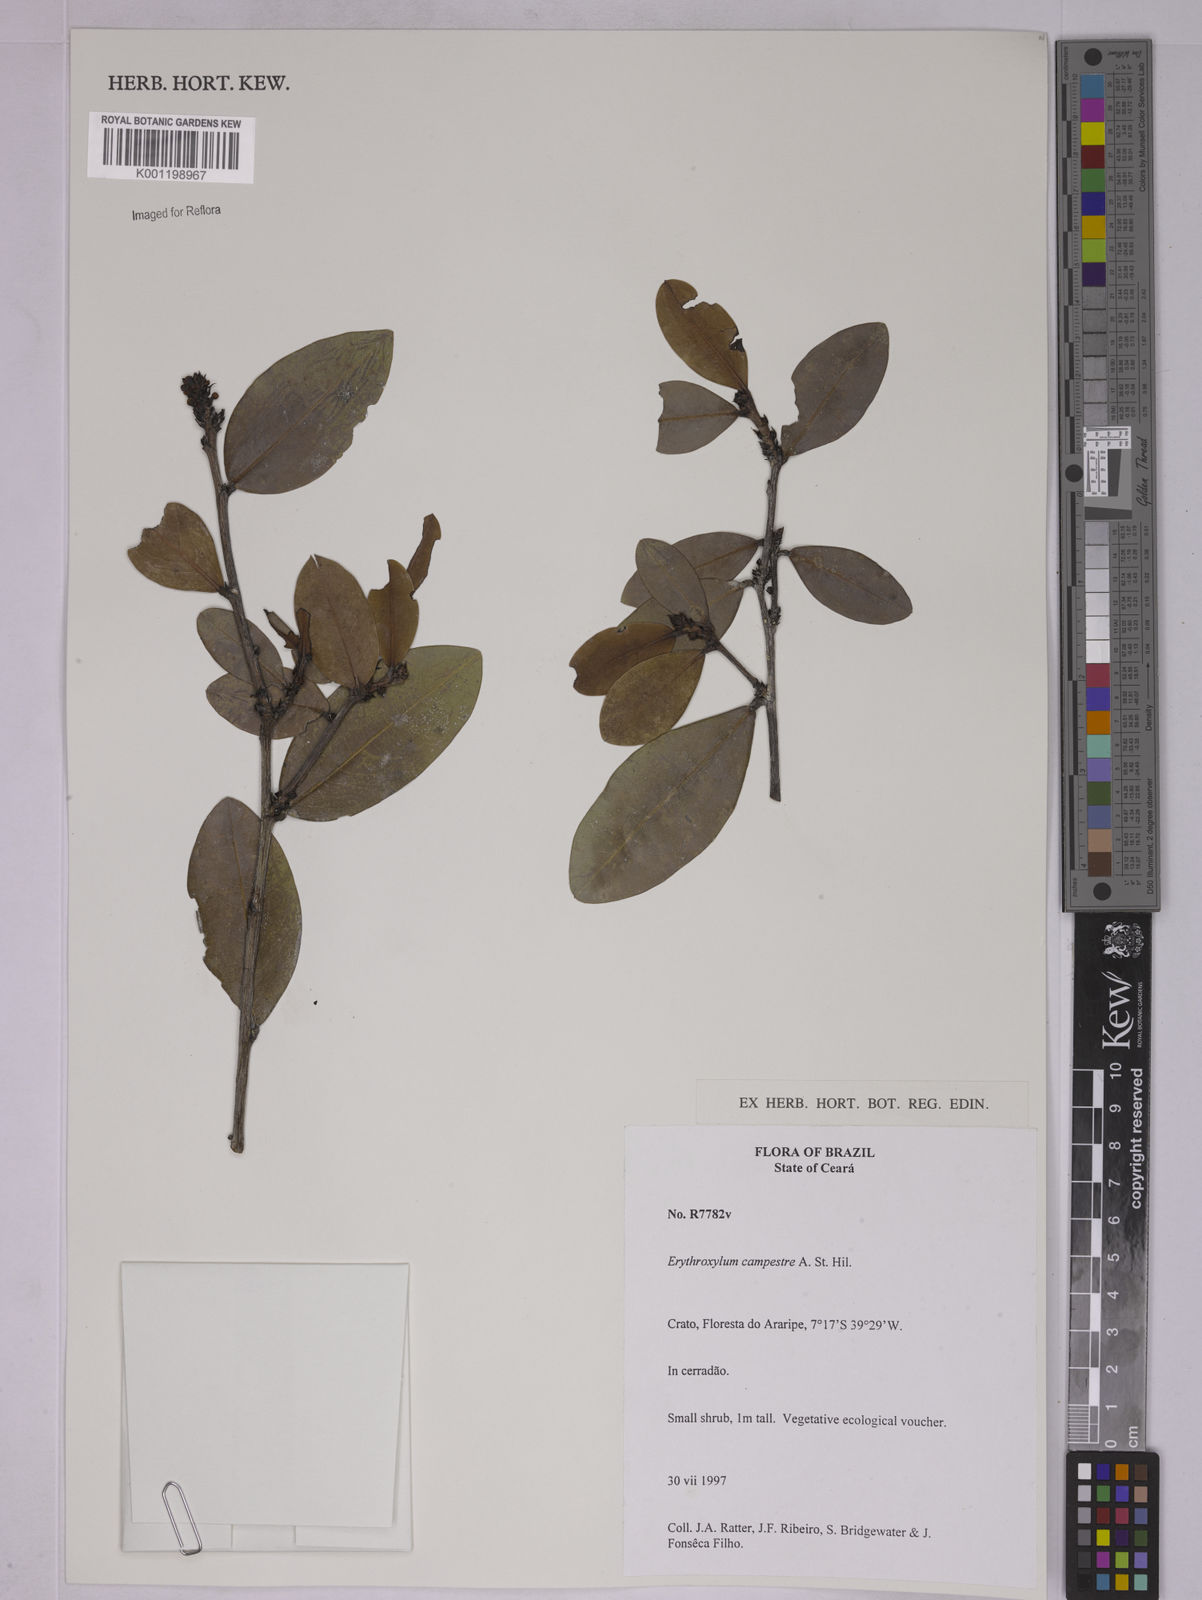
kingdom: Plantae
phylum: Tracheophyta
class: Magnoliopsida
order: Malpighiales
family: Erythroxylaceae
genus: Erythroxylum
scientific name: Erythroxylum campestre
